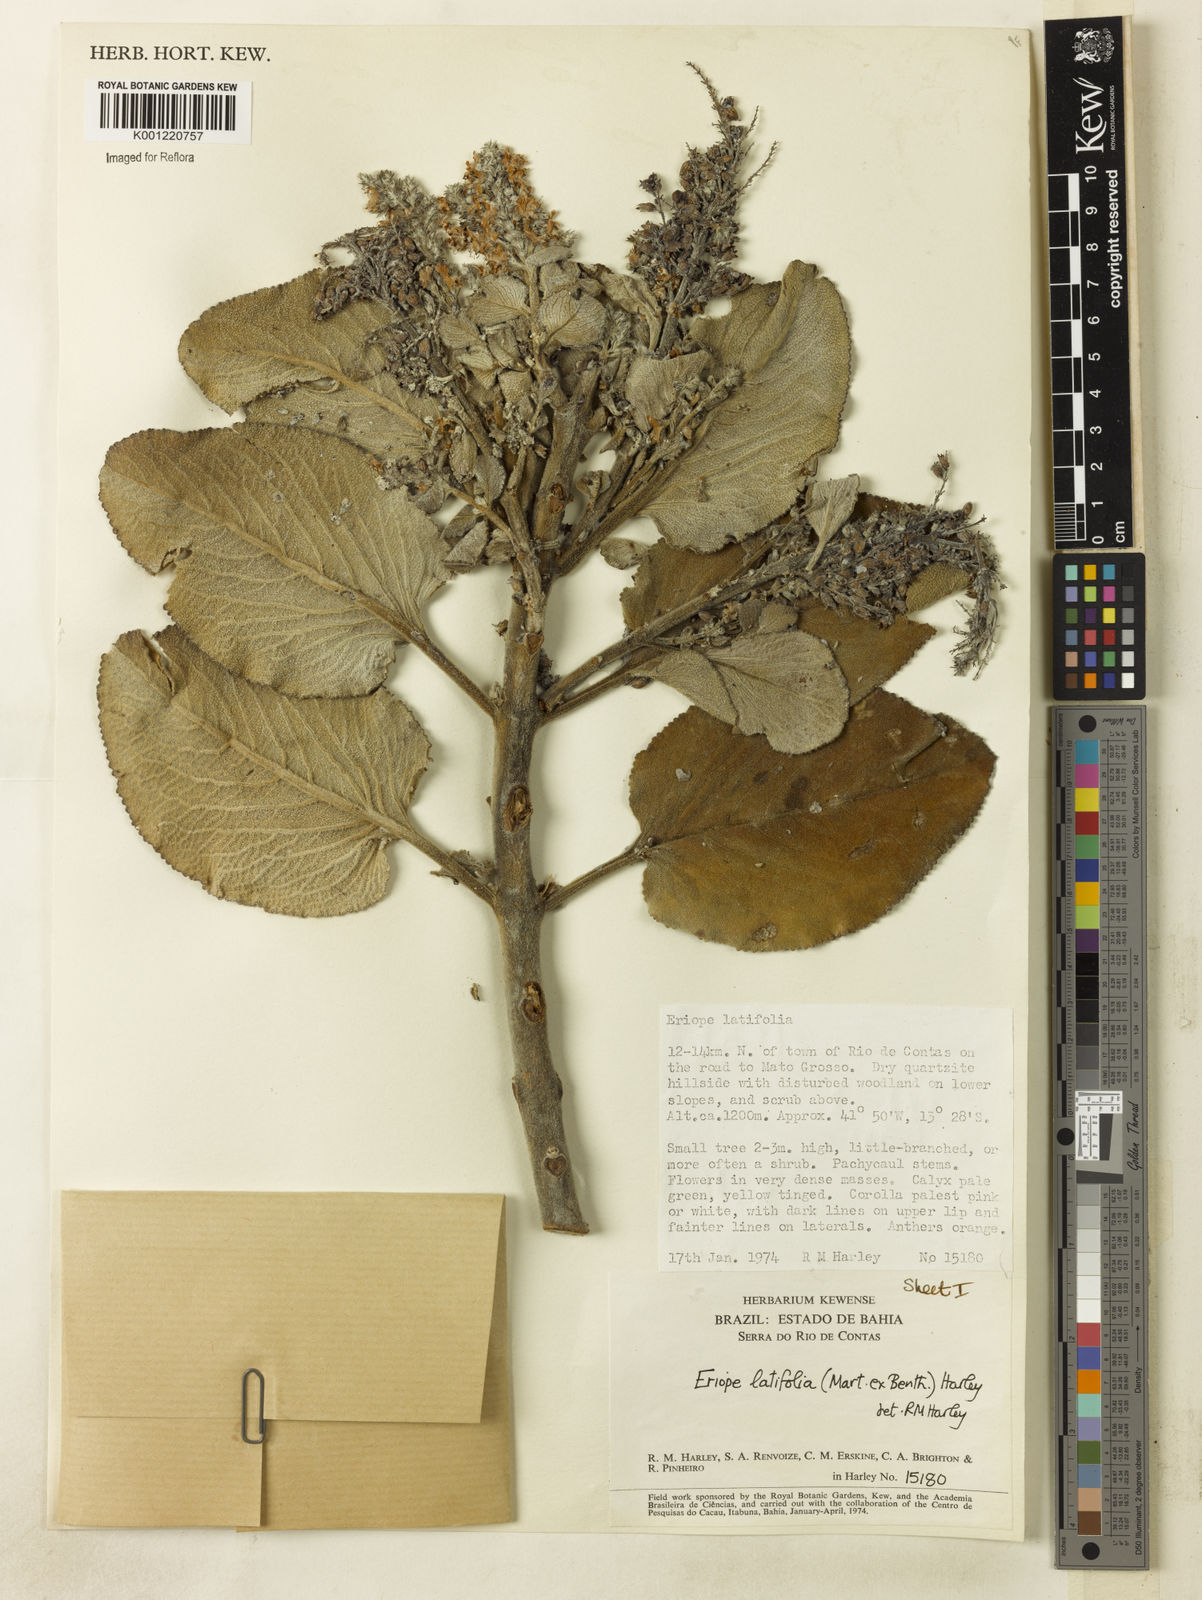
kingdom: Plantae
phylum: Tracheophyta
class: Magnoliopsida
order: Lamiales
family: Lamiaceae
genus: Eriope
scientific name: Eriope latifolia
